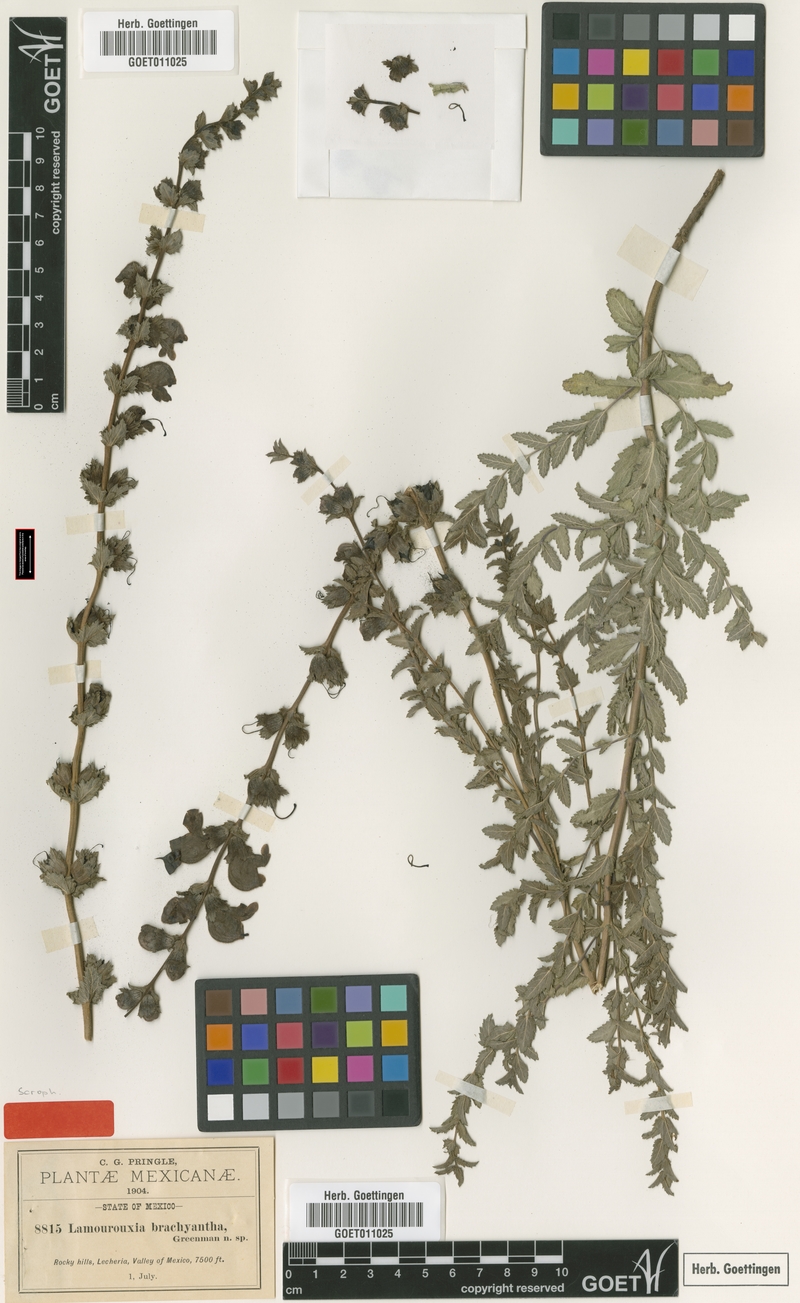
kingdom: Plantae
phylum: Tracheophyta
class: Magnoliopsida
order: Lamiales
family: Orobanchaceae
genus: Lamourouxia
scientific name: Lamourouxia brachyantha
